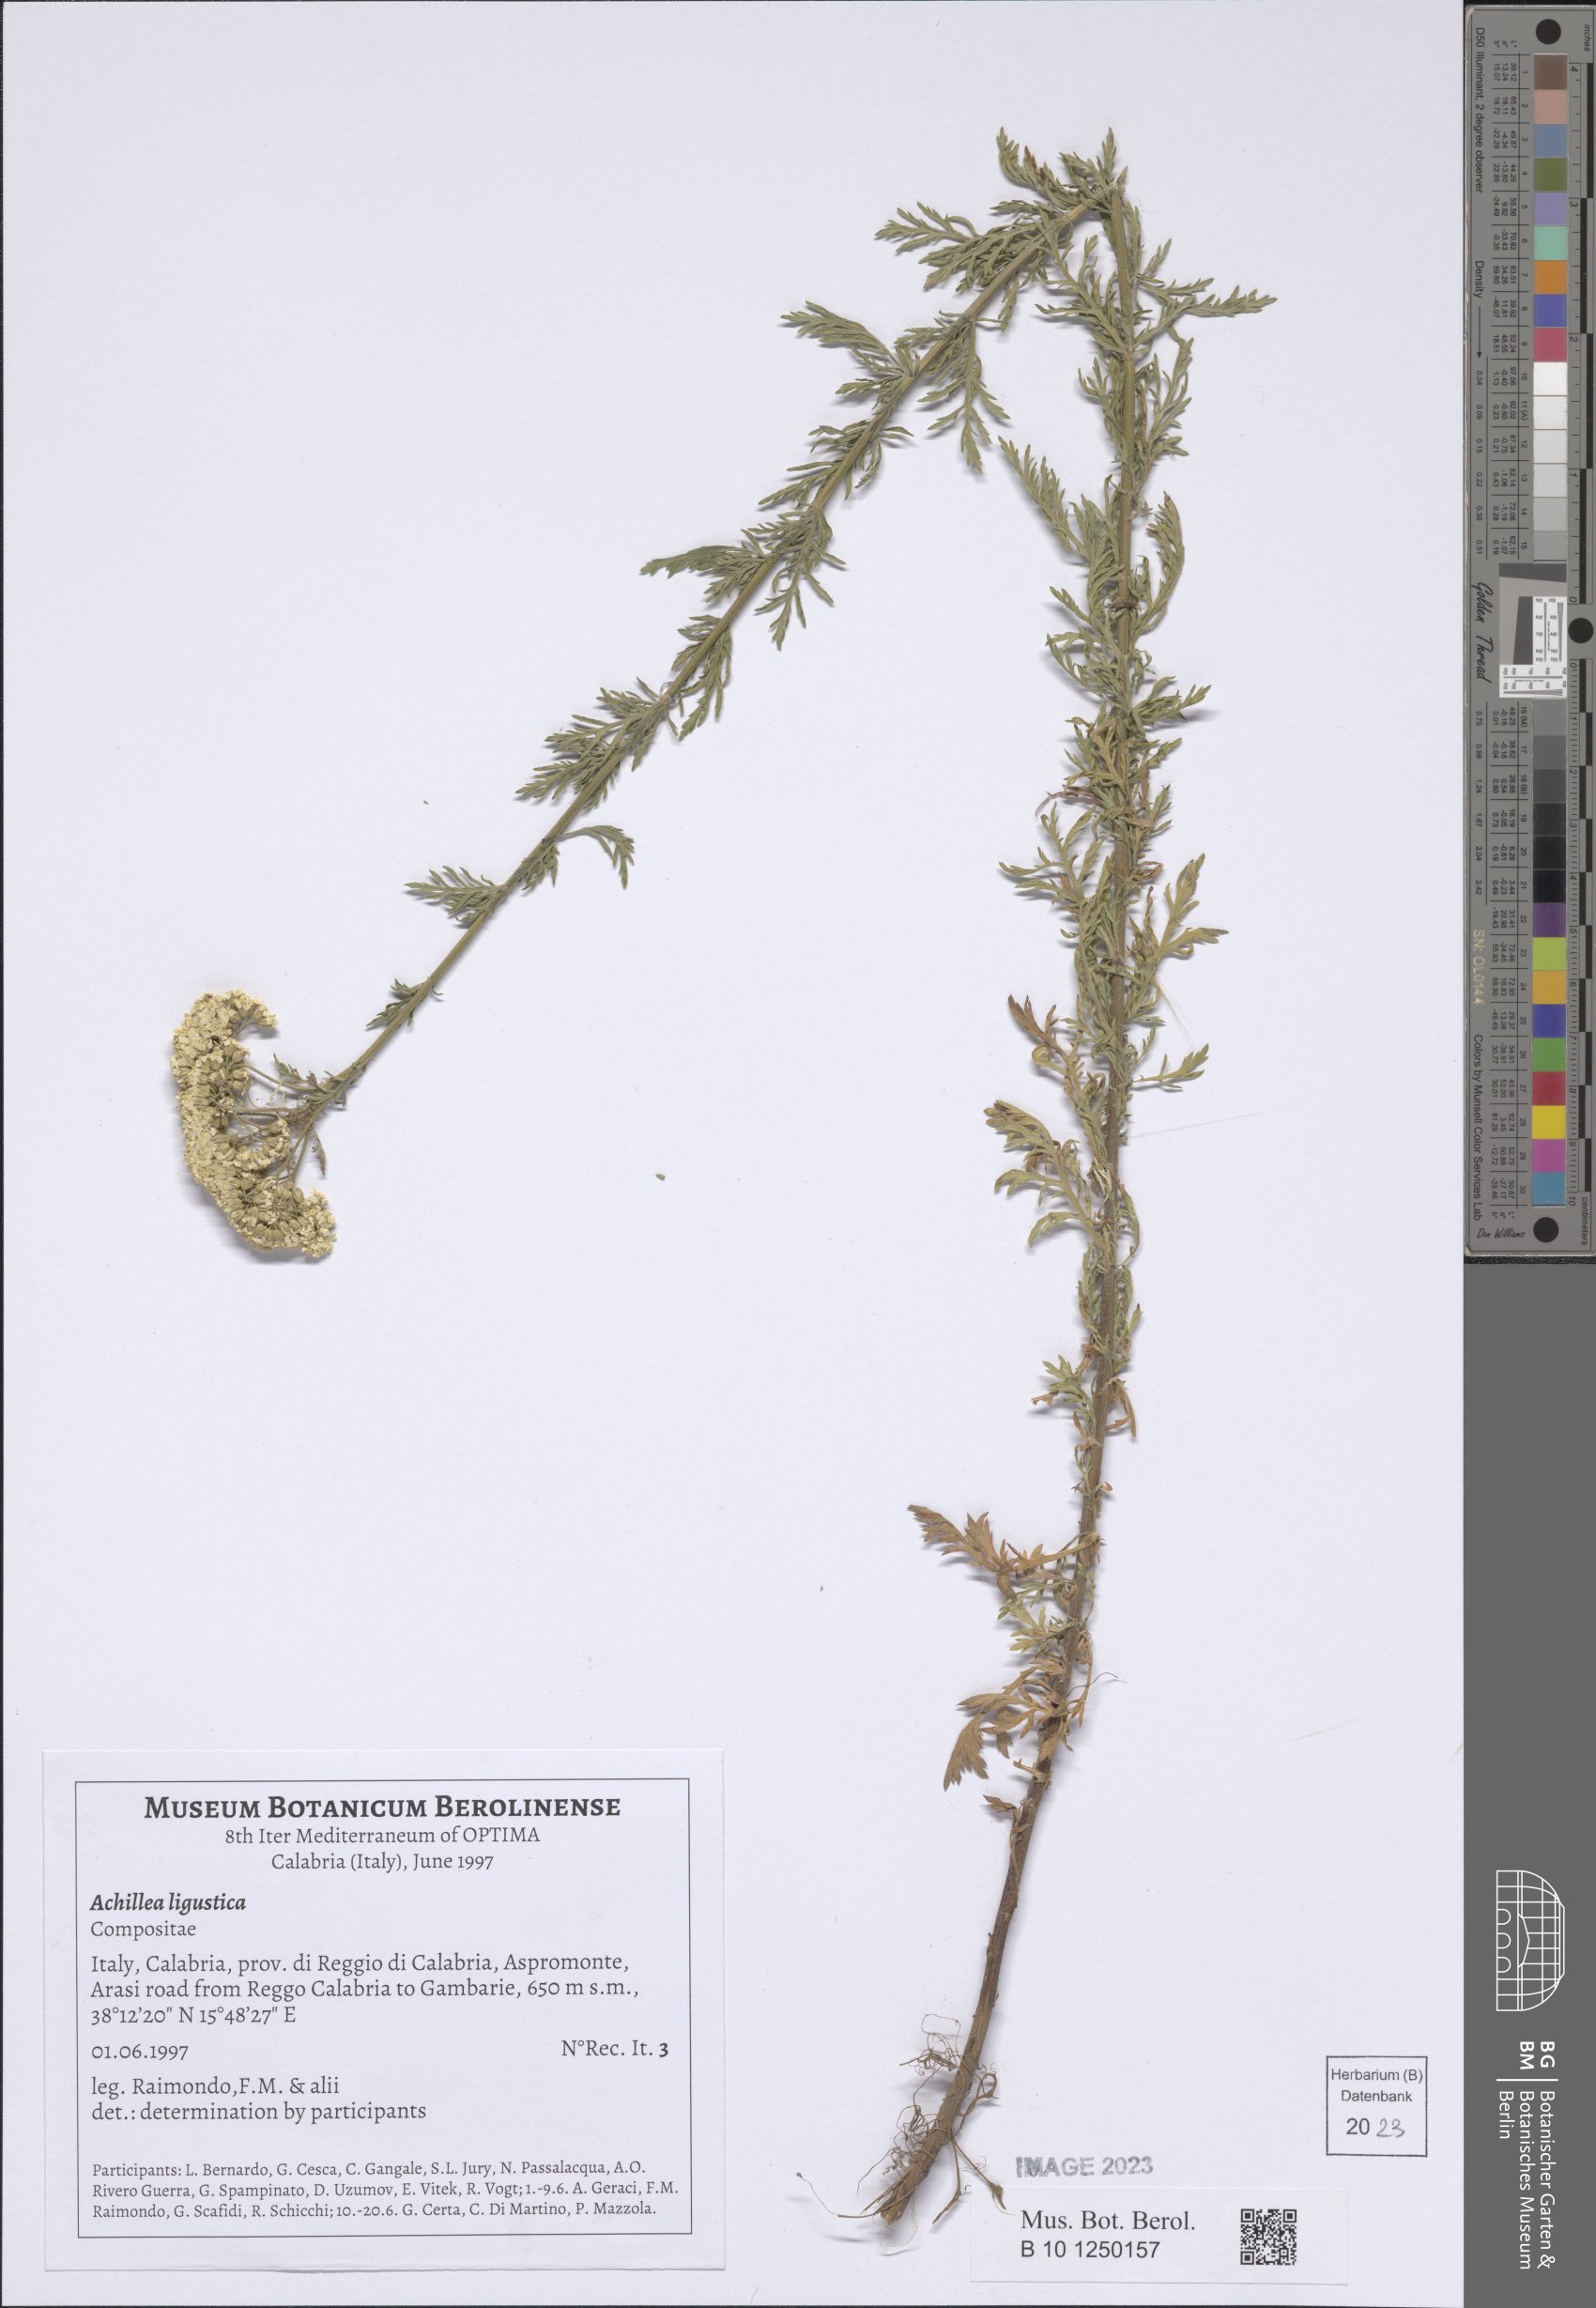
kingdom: Plantae
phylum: Tracheophyta
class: Magnoliopsida
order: Asterales
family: Asteraceae
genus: Achillea
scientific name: Achillea ligustica
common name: Southern yarrow
